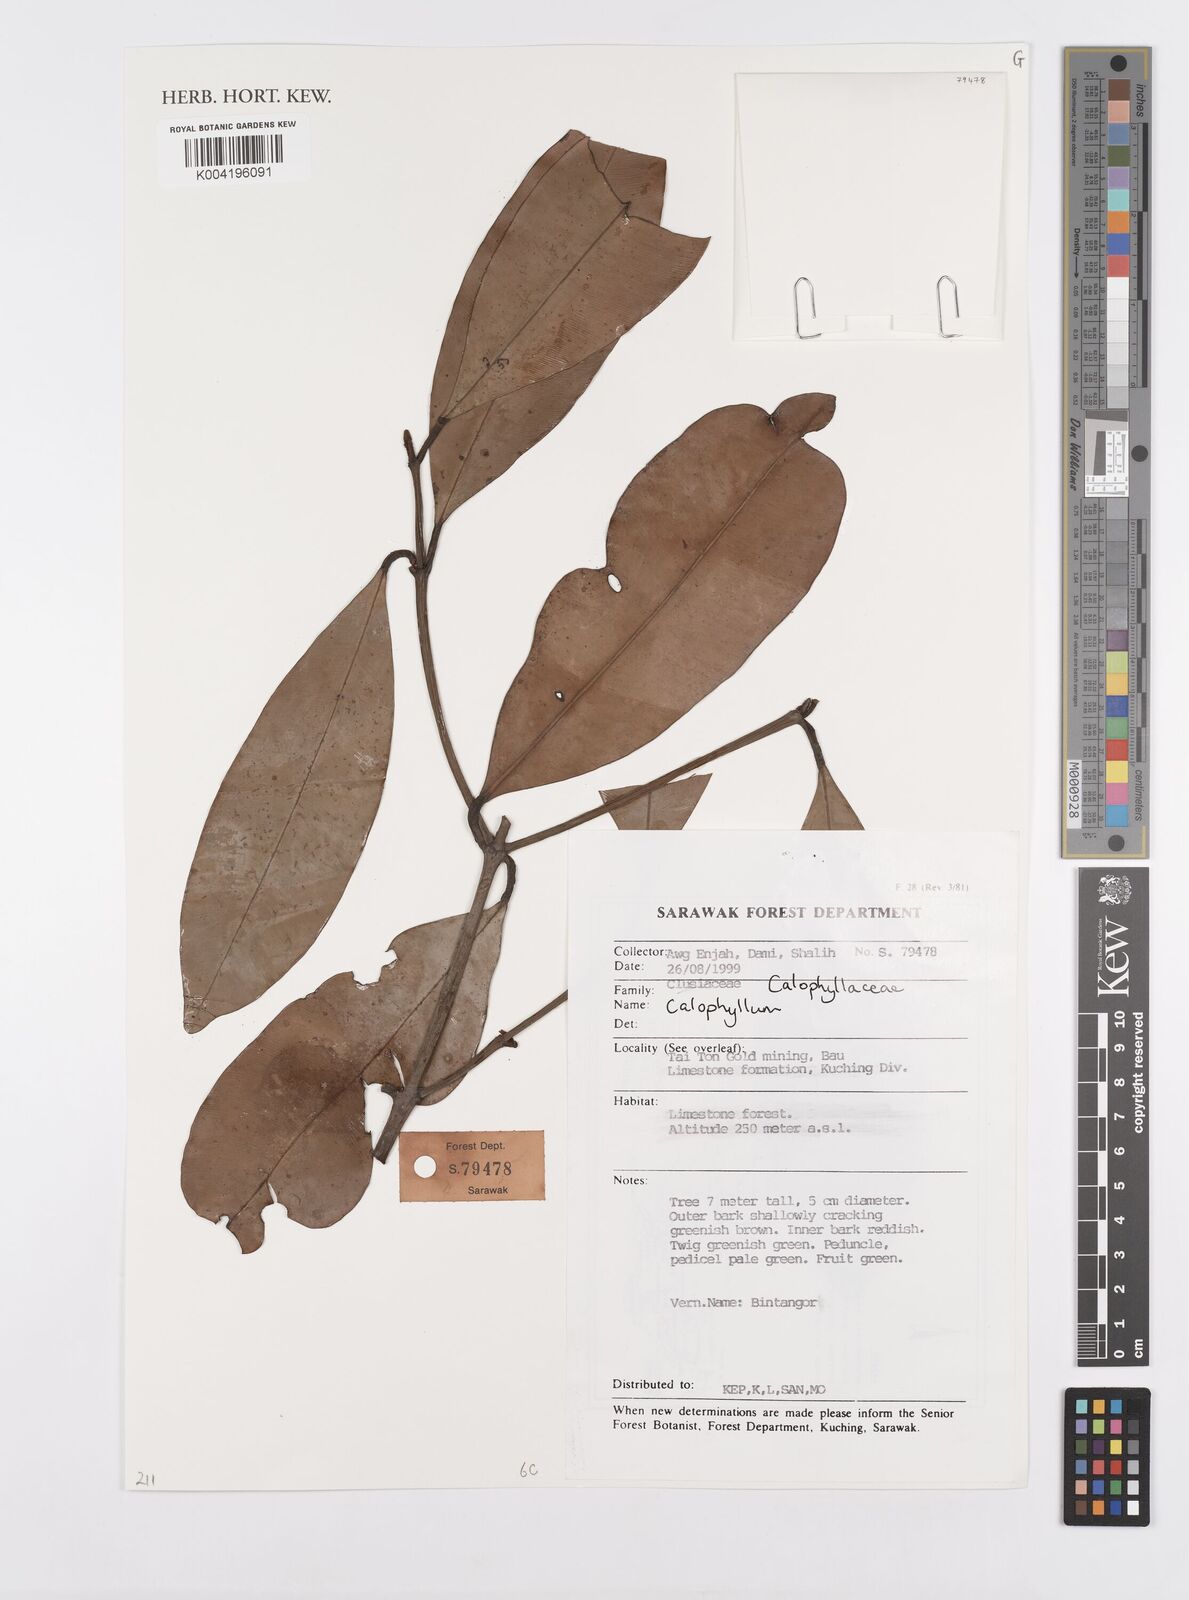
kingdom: Plantae
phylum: Tracheophyta
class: Magnoliopsida
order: Malpighiales
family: Calophyllaceae
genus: Calophyllum
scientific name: Calophyllum
